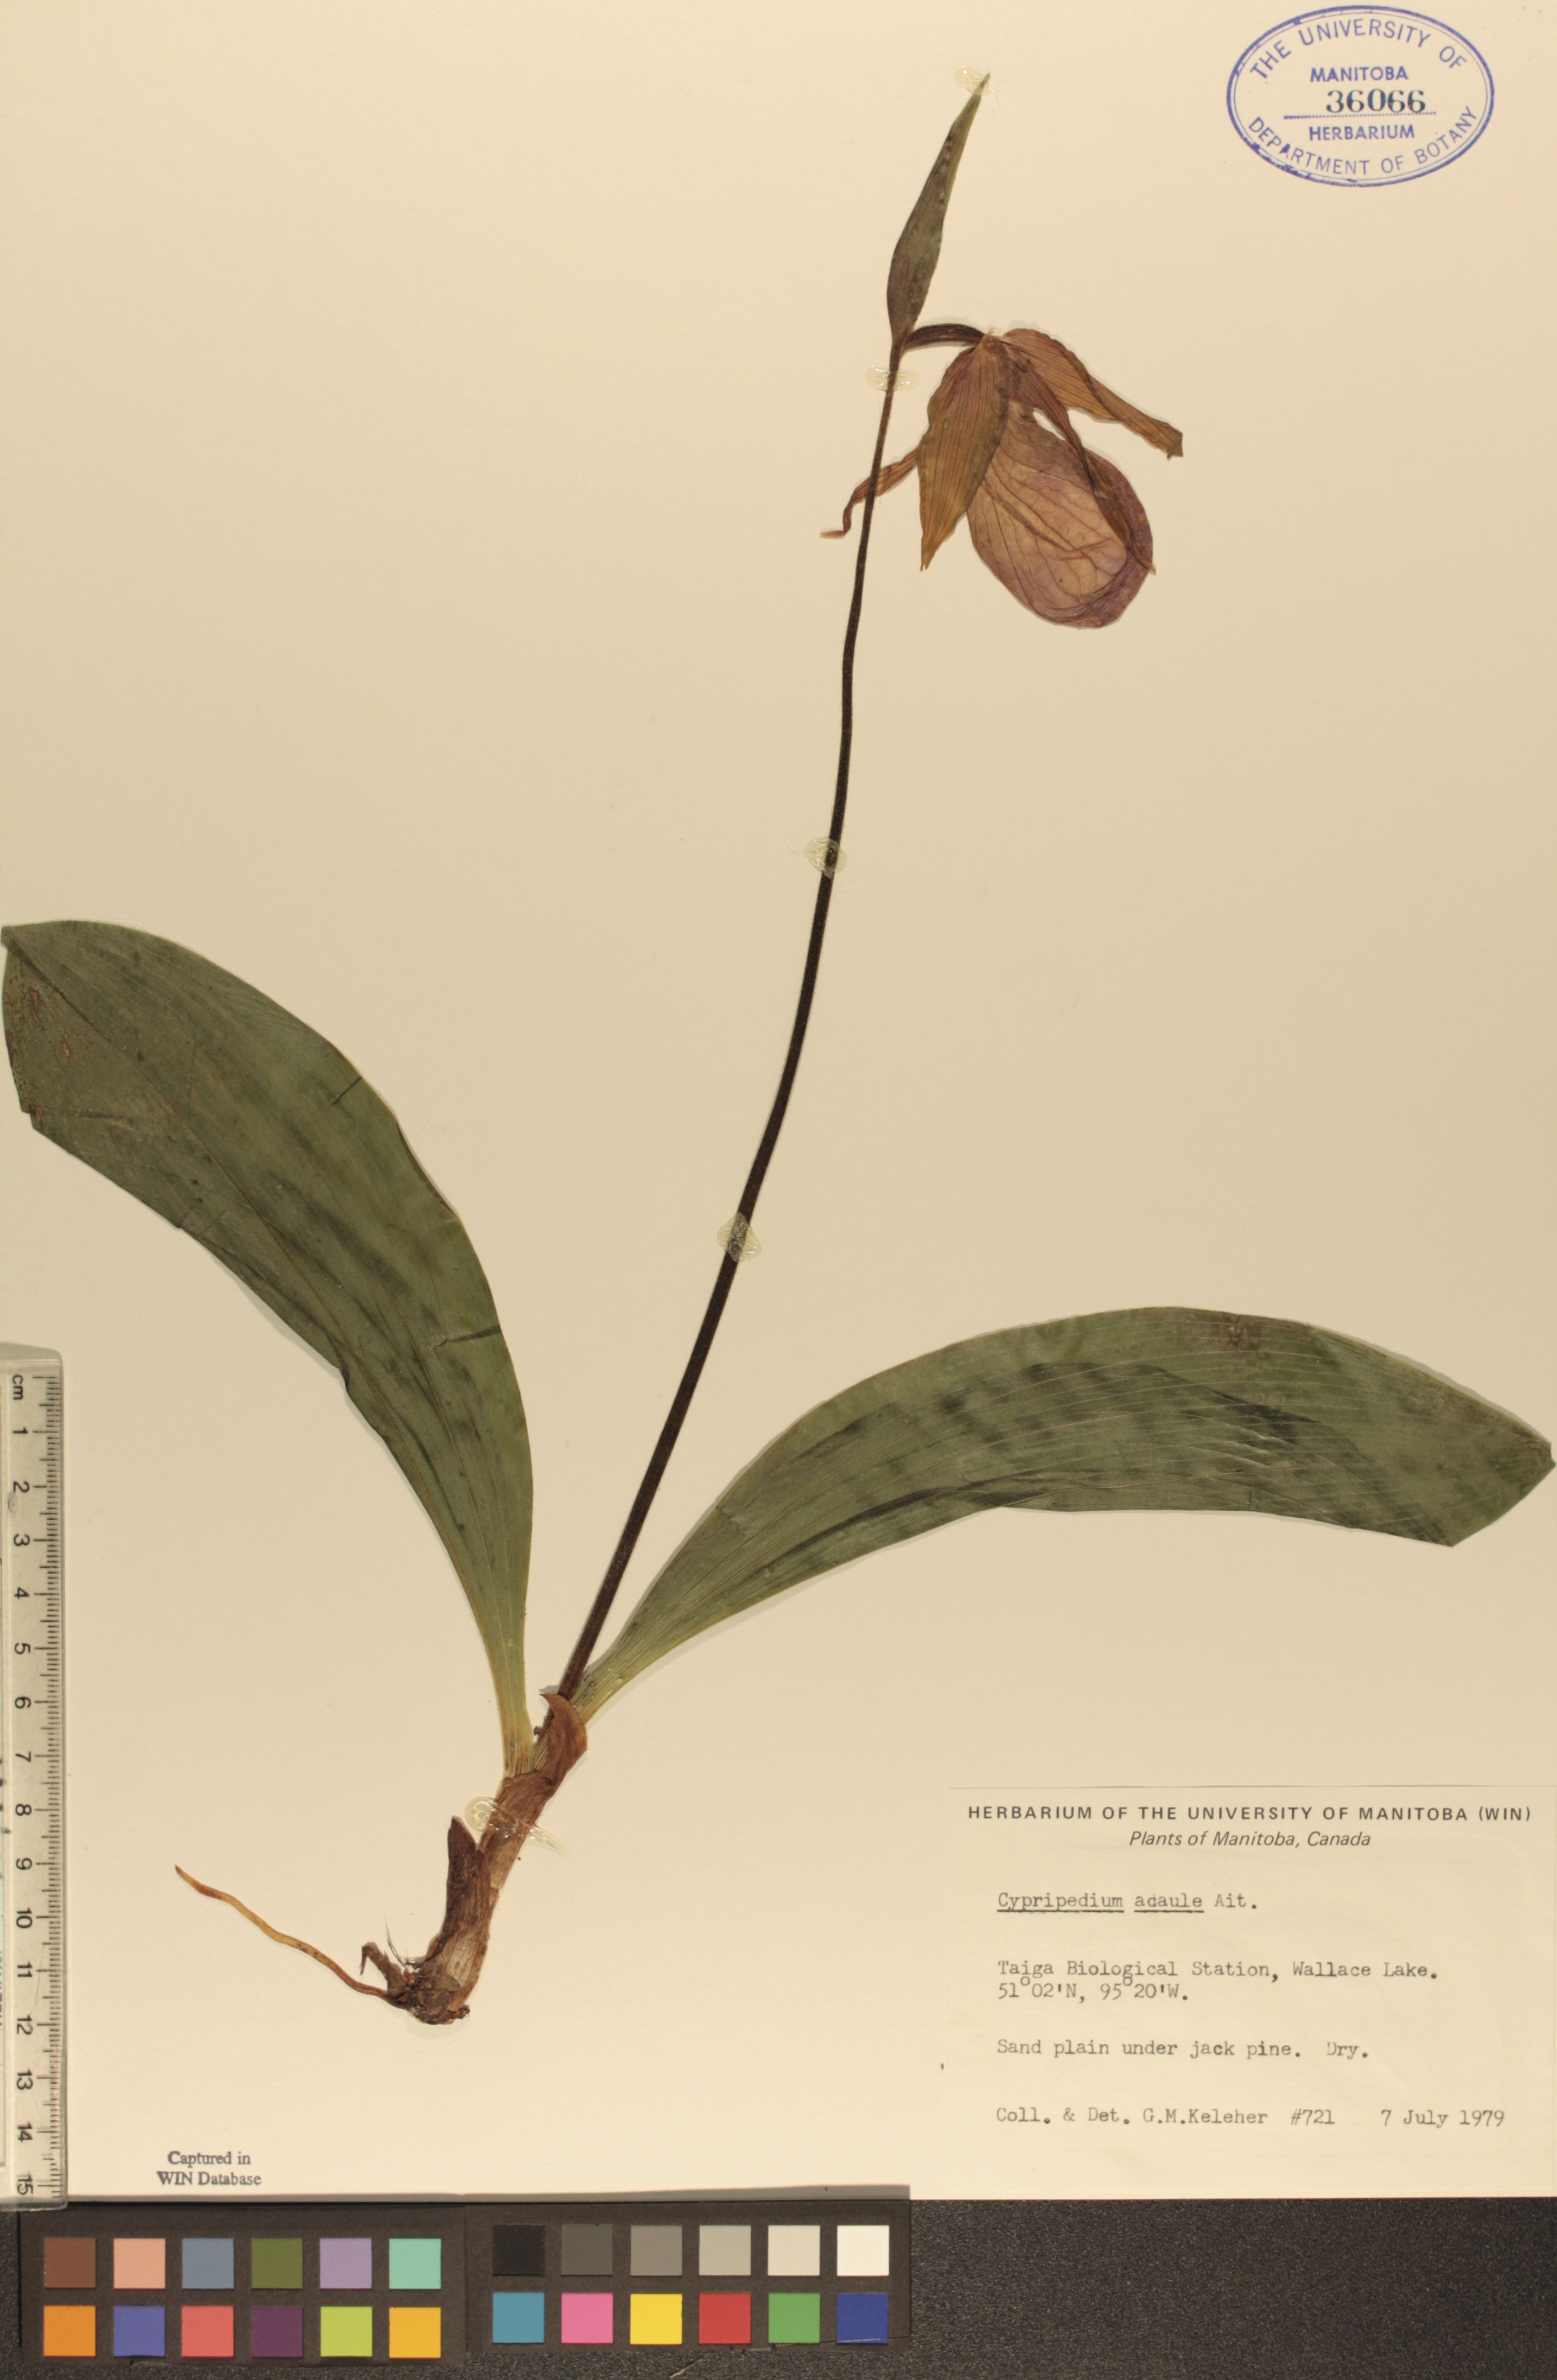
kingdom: Plantae
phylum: Tracheophyta
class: Liliopsida
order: Asparagales
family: Orchidaceae
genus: Cypripedium
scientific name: Cypripedium acaule
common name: Pink lady's-slipper
